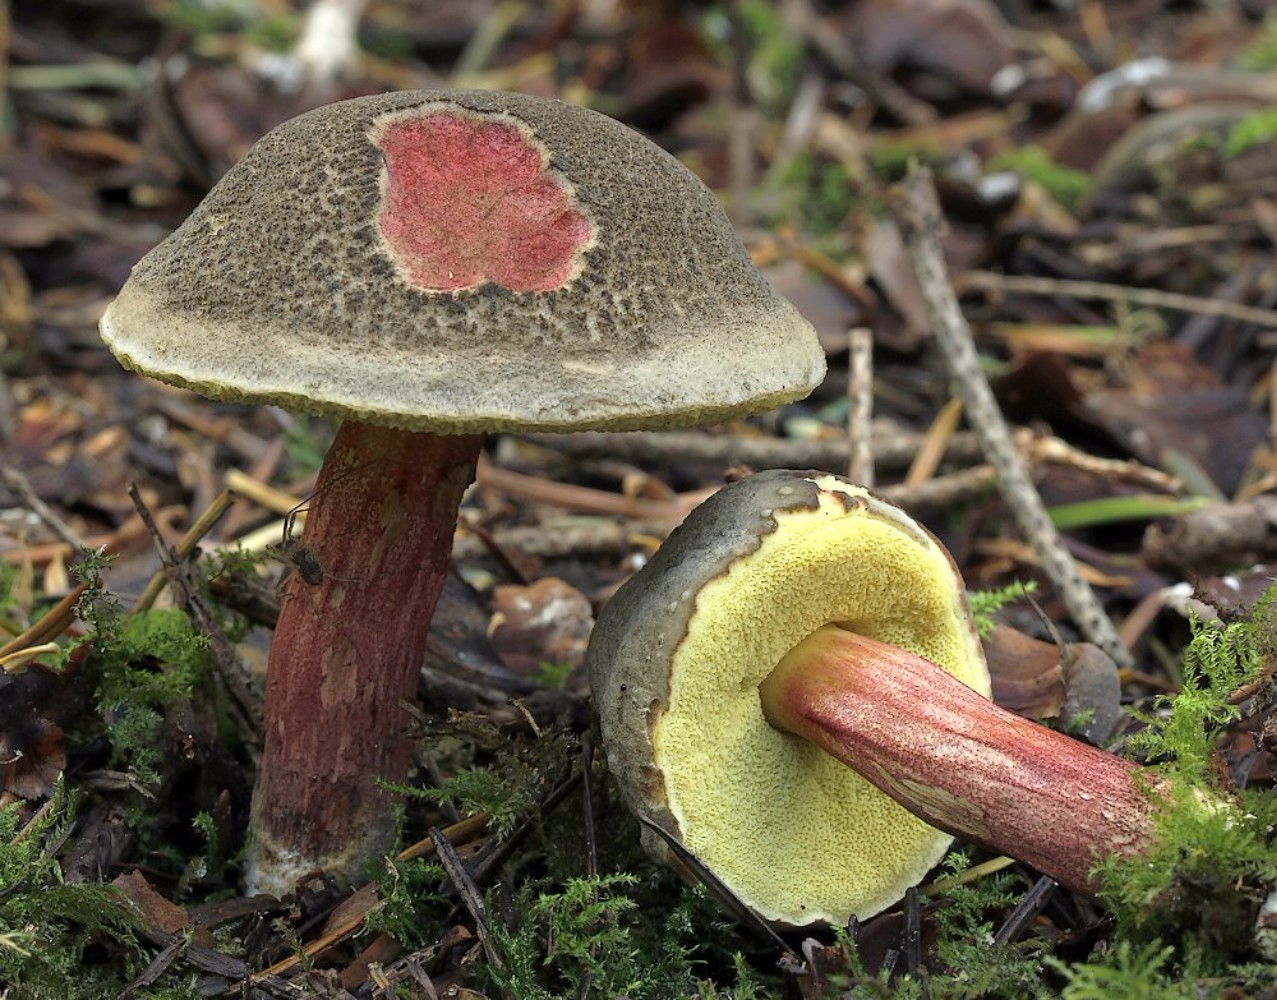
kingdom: Fungi
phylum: Basidiomycota
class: Agaricomycetes
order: Boletales
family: Boletaceae
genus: Xerocomellus
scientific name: Xerocomellus chrysenteron
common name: rødsprukken rørhat
